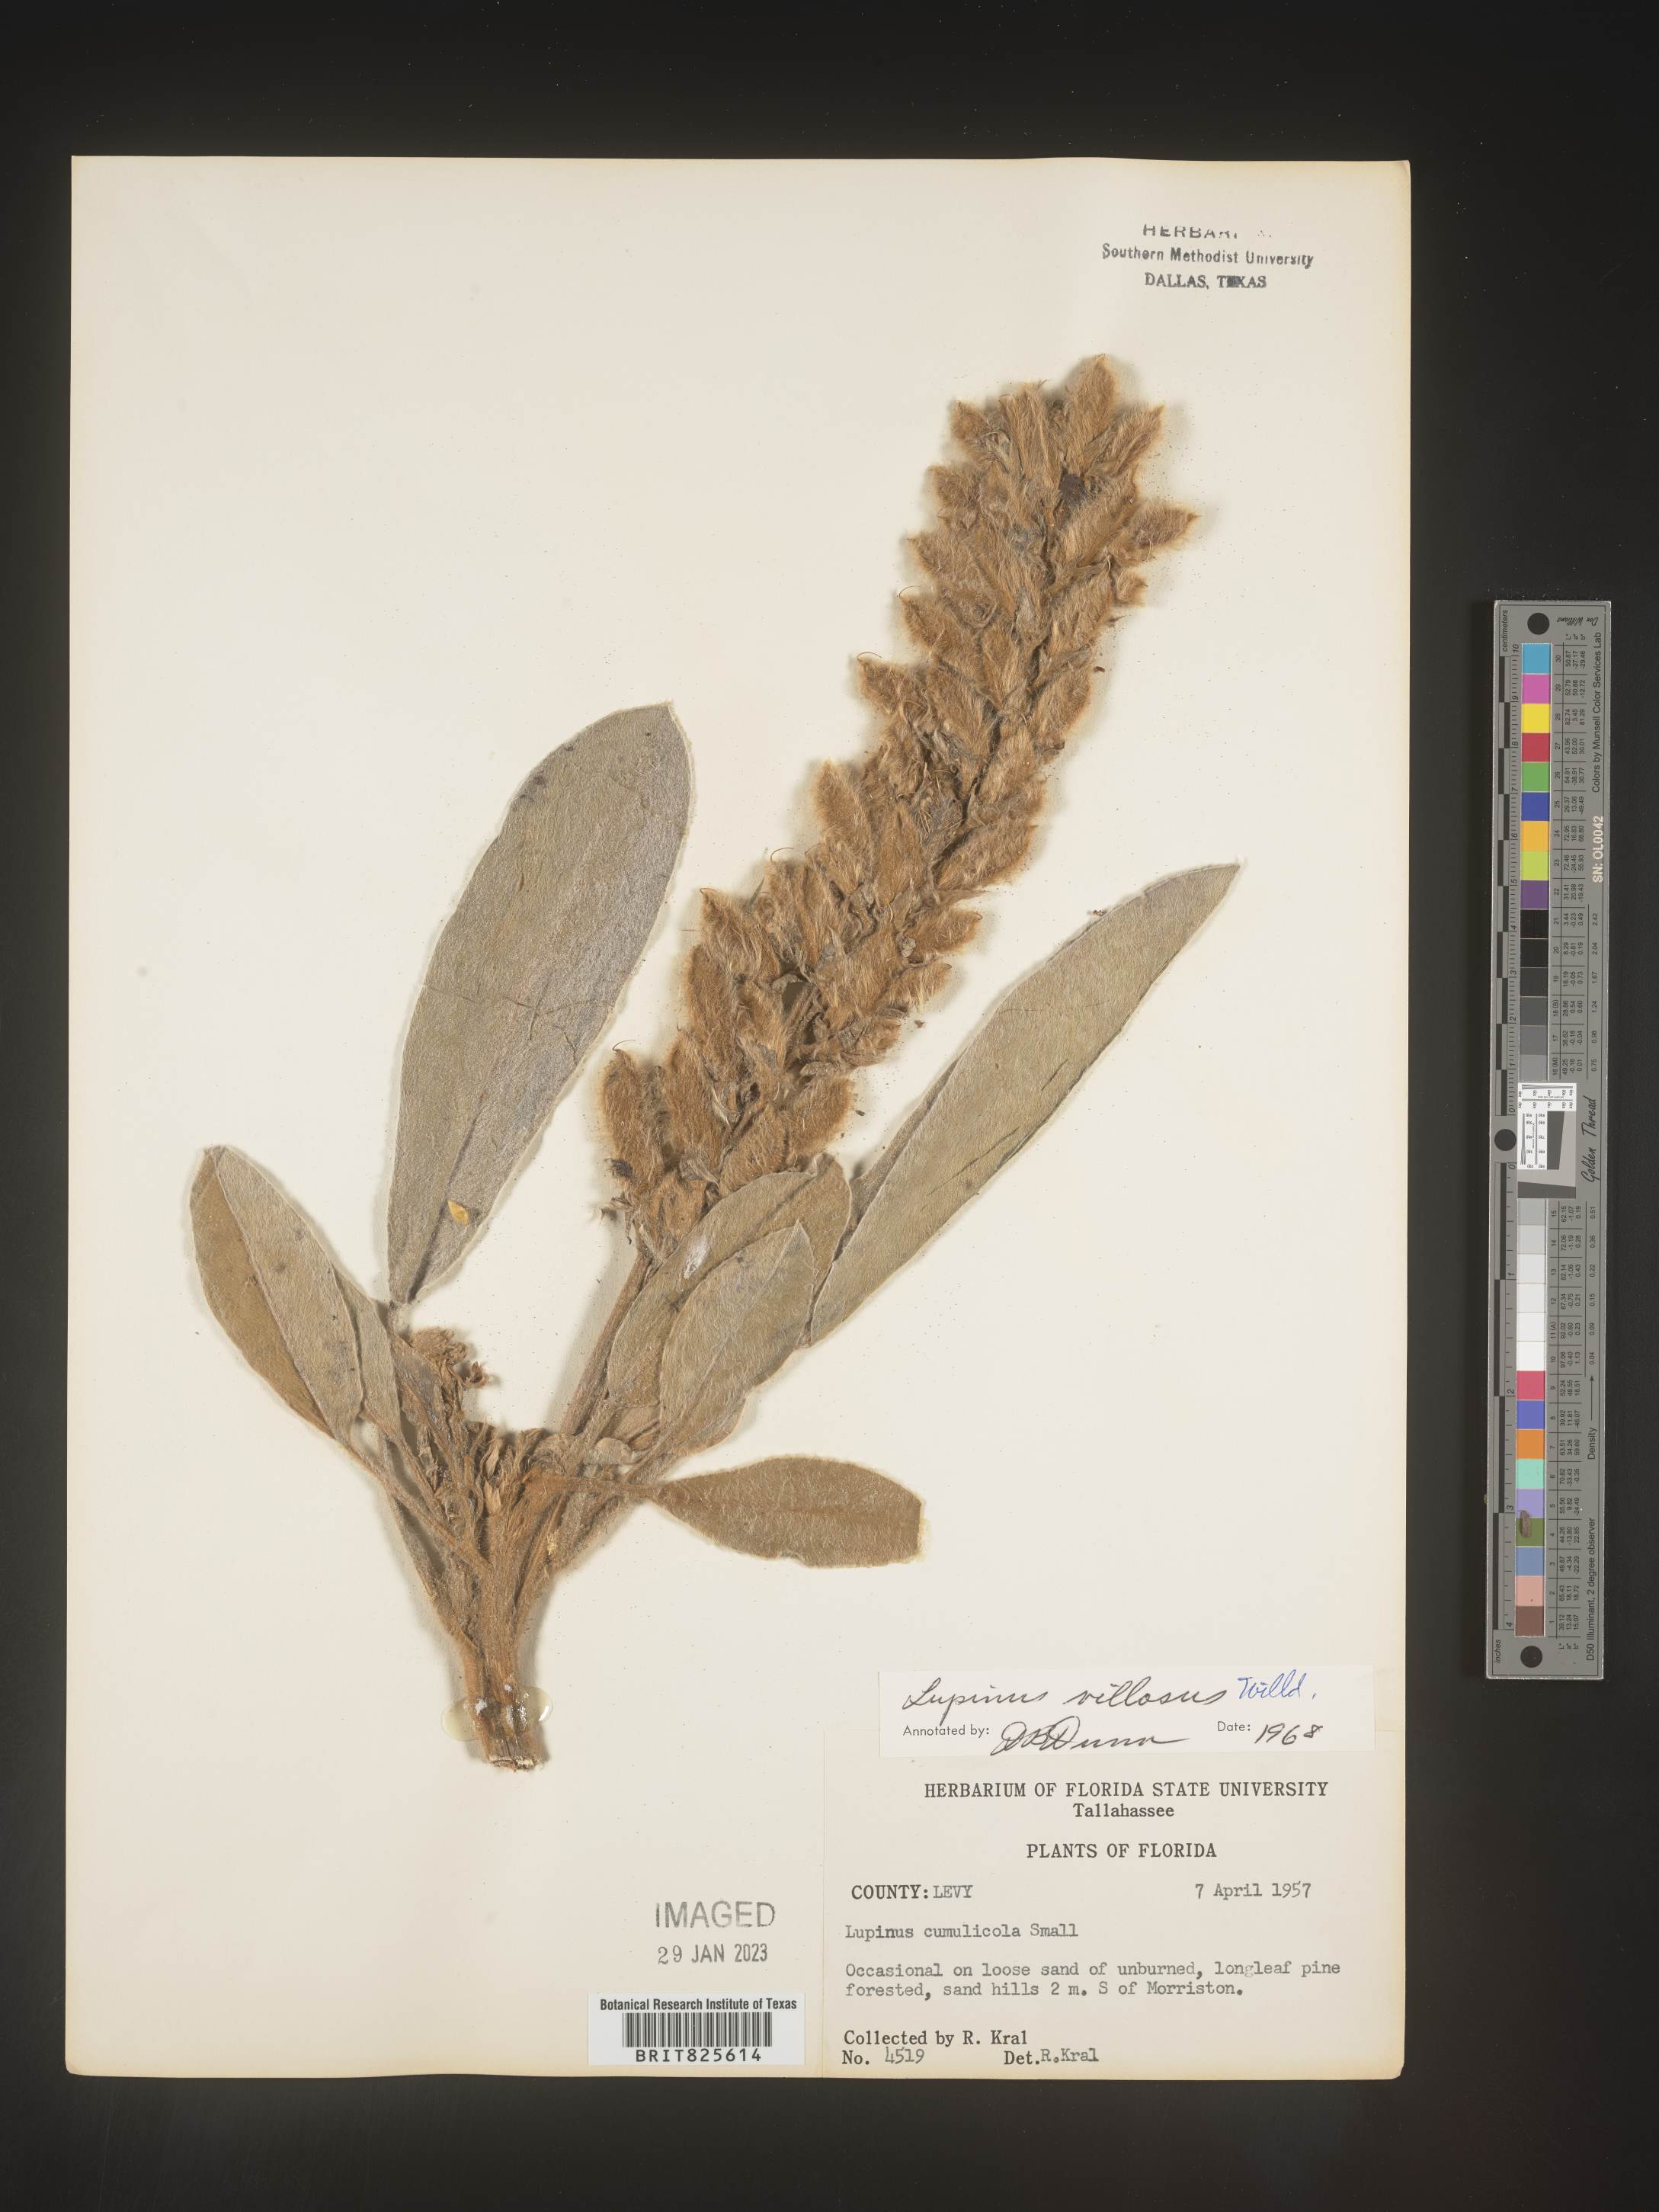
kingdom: Plantae
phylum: Tracheophyta
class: Magnoliopsida
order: Fabales
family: Fabaceae
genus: Lupinus
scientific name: Lupinus villosus
